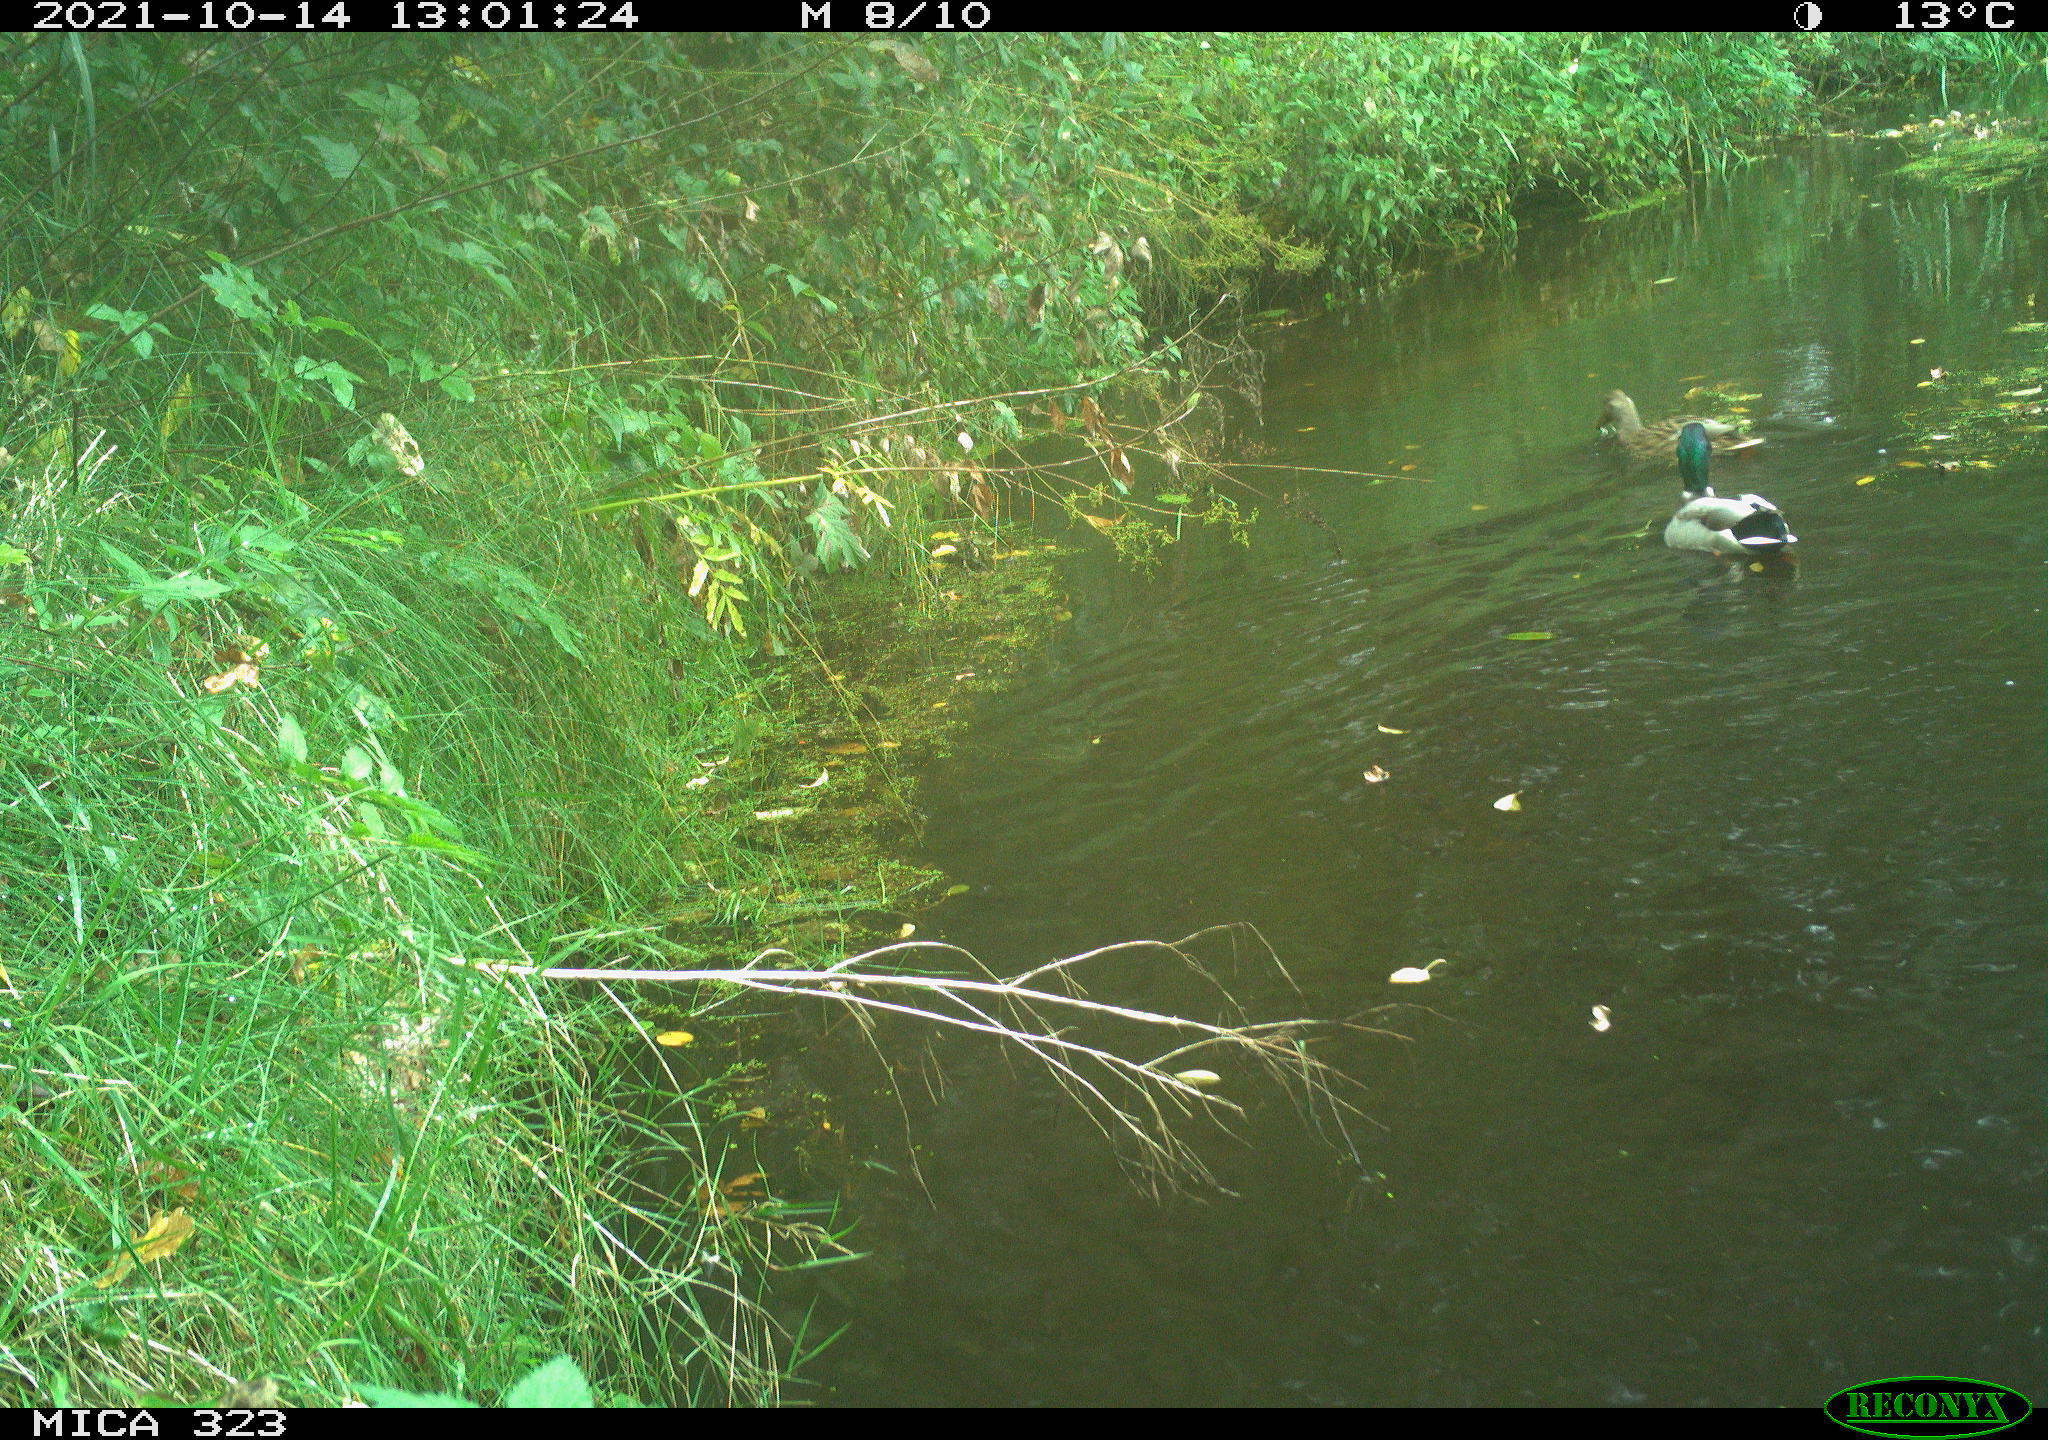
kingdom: Animalia
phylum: Chordata
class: Aves
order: Anseriformes
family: Anatidae
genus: Anas
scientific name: Anas platyrhynchos
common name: Mallard
